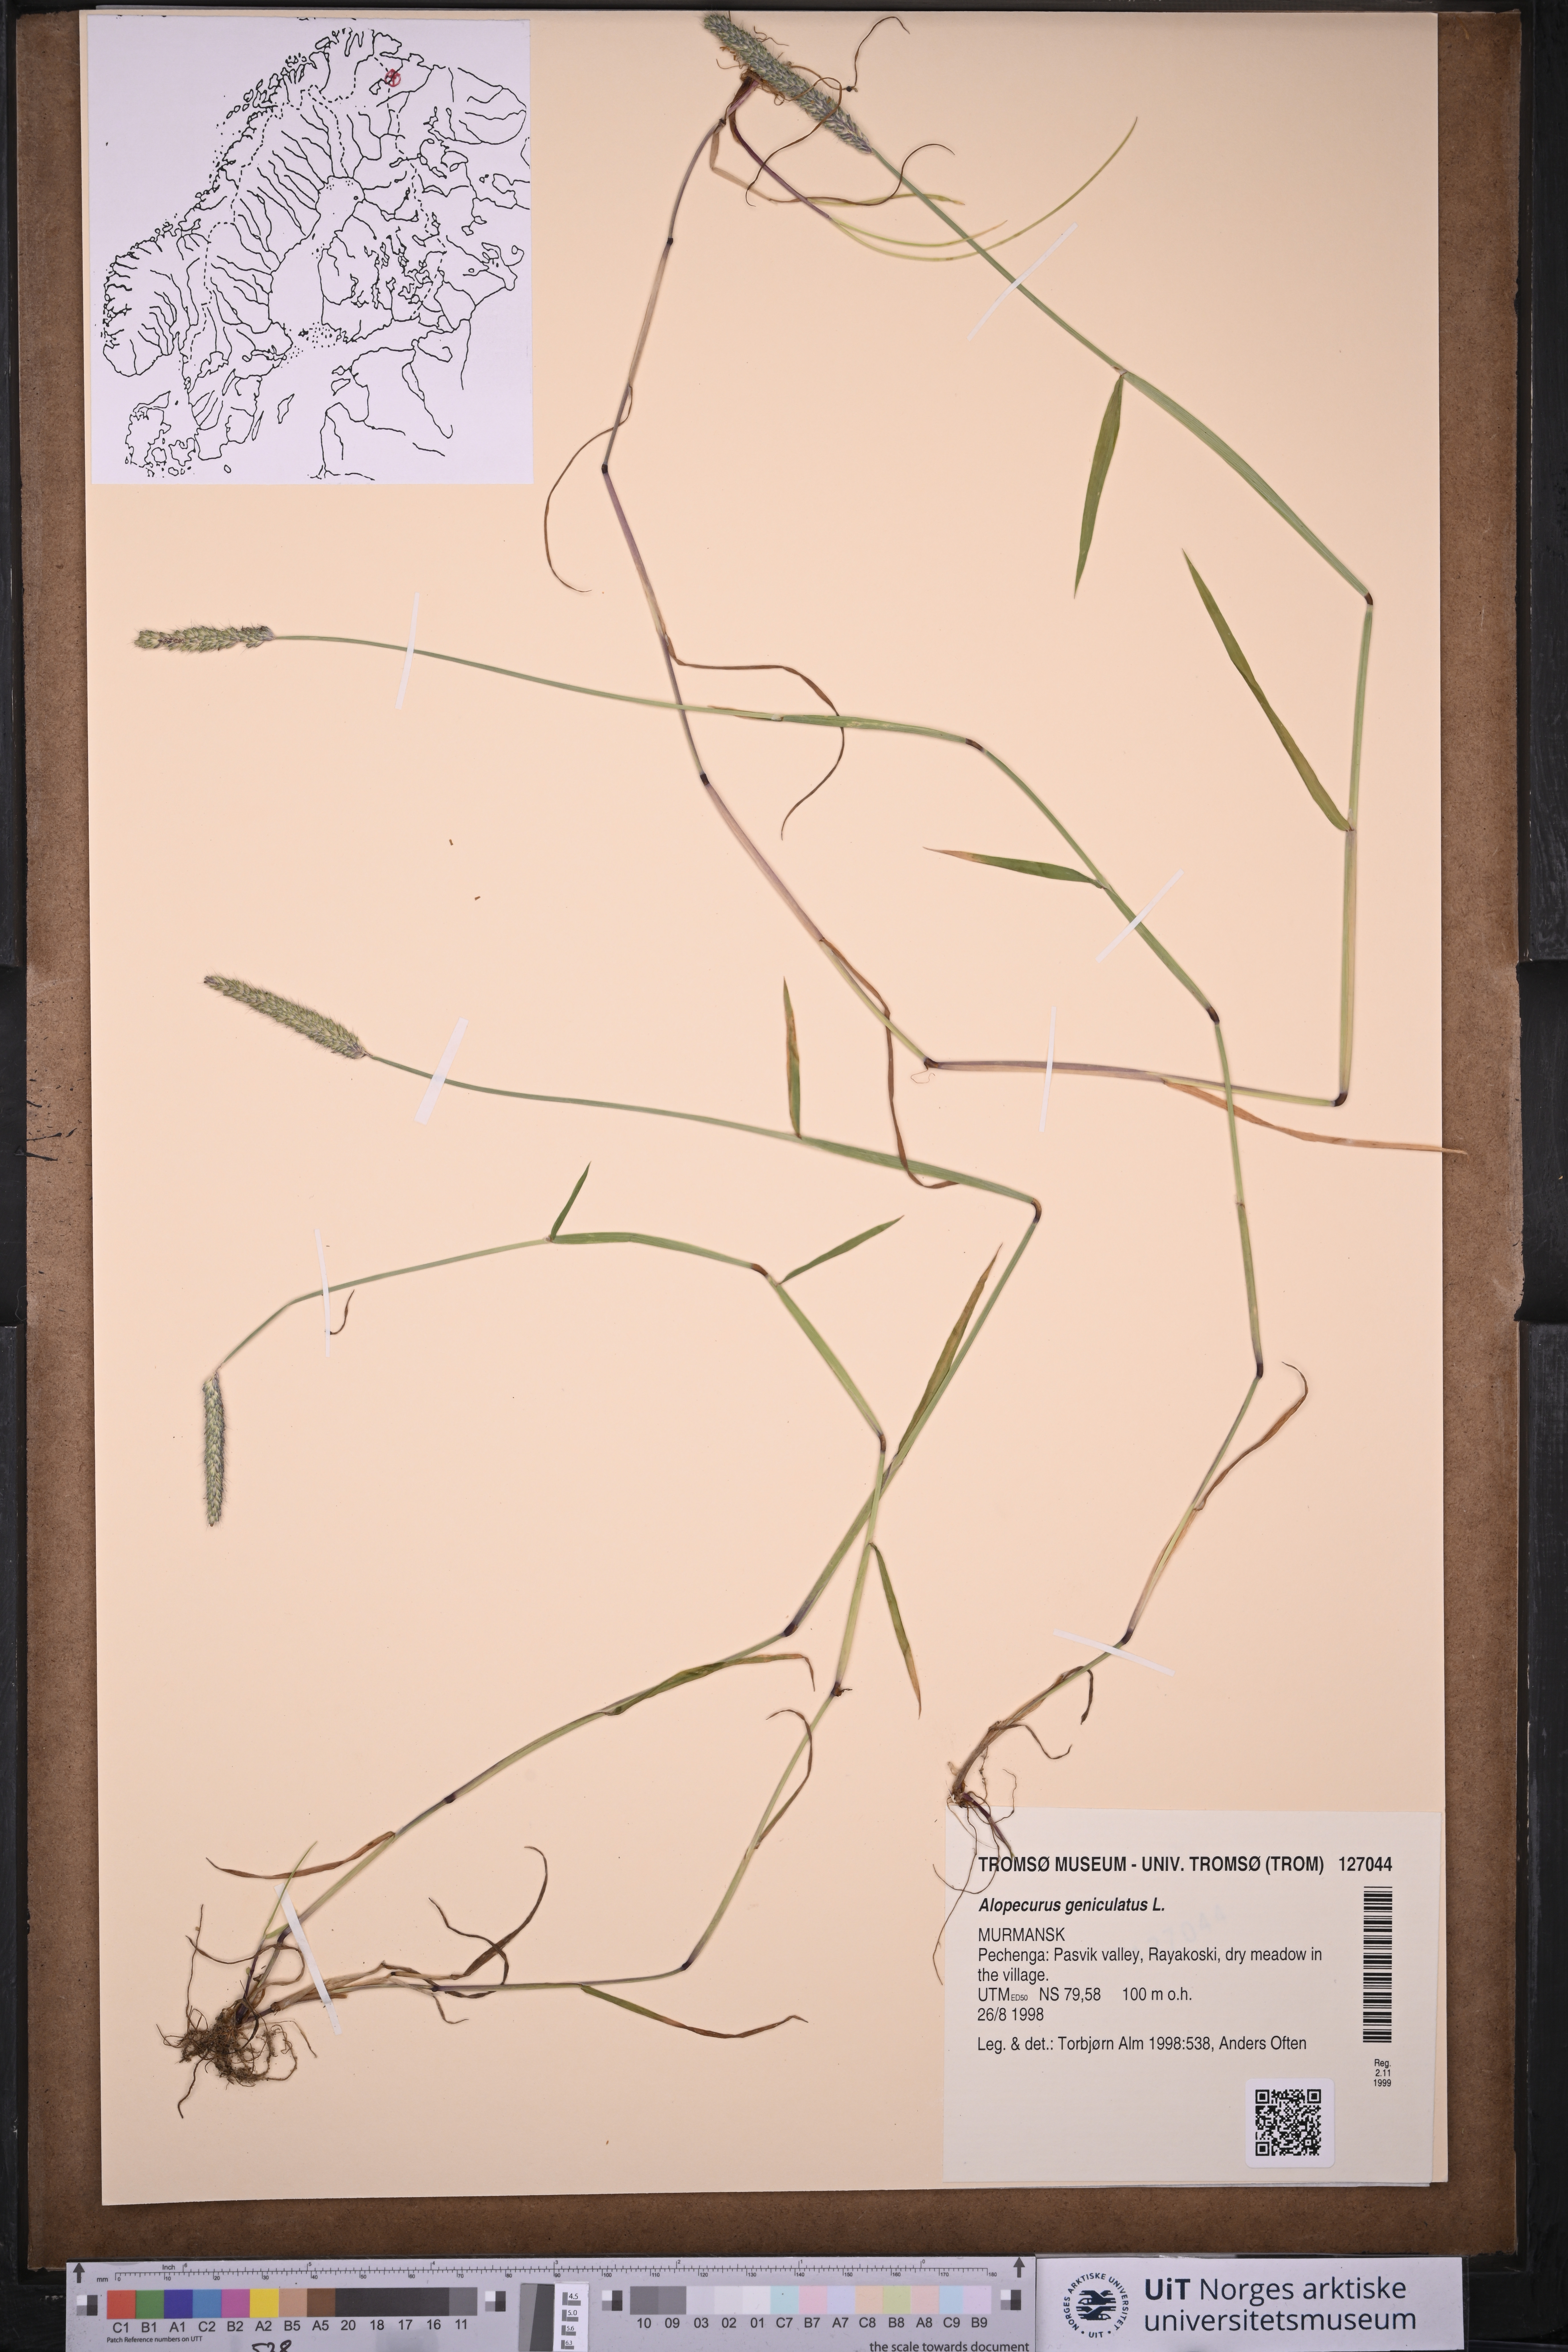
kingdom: Plantae
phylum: Tracheophyta
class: Liliopsida
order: Poales
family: Poaceae
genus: Alopecurus
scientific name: Alopecurus geniculatus
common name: Water foxtail
